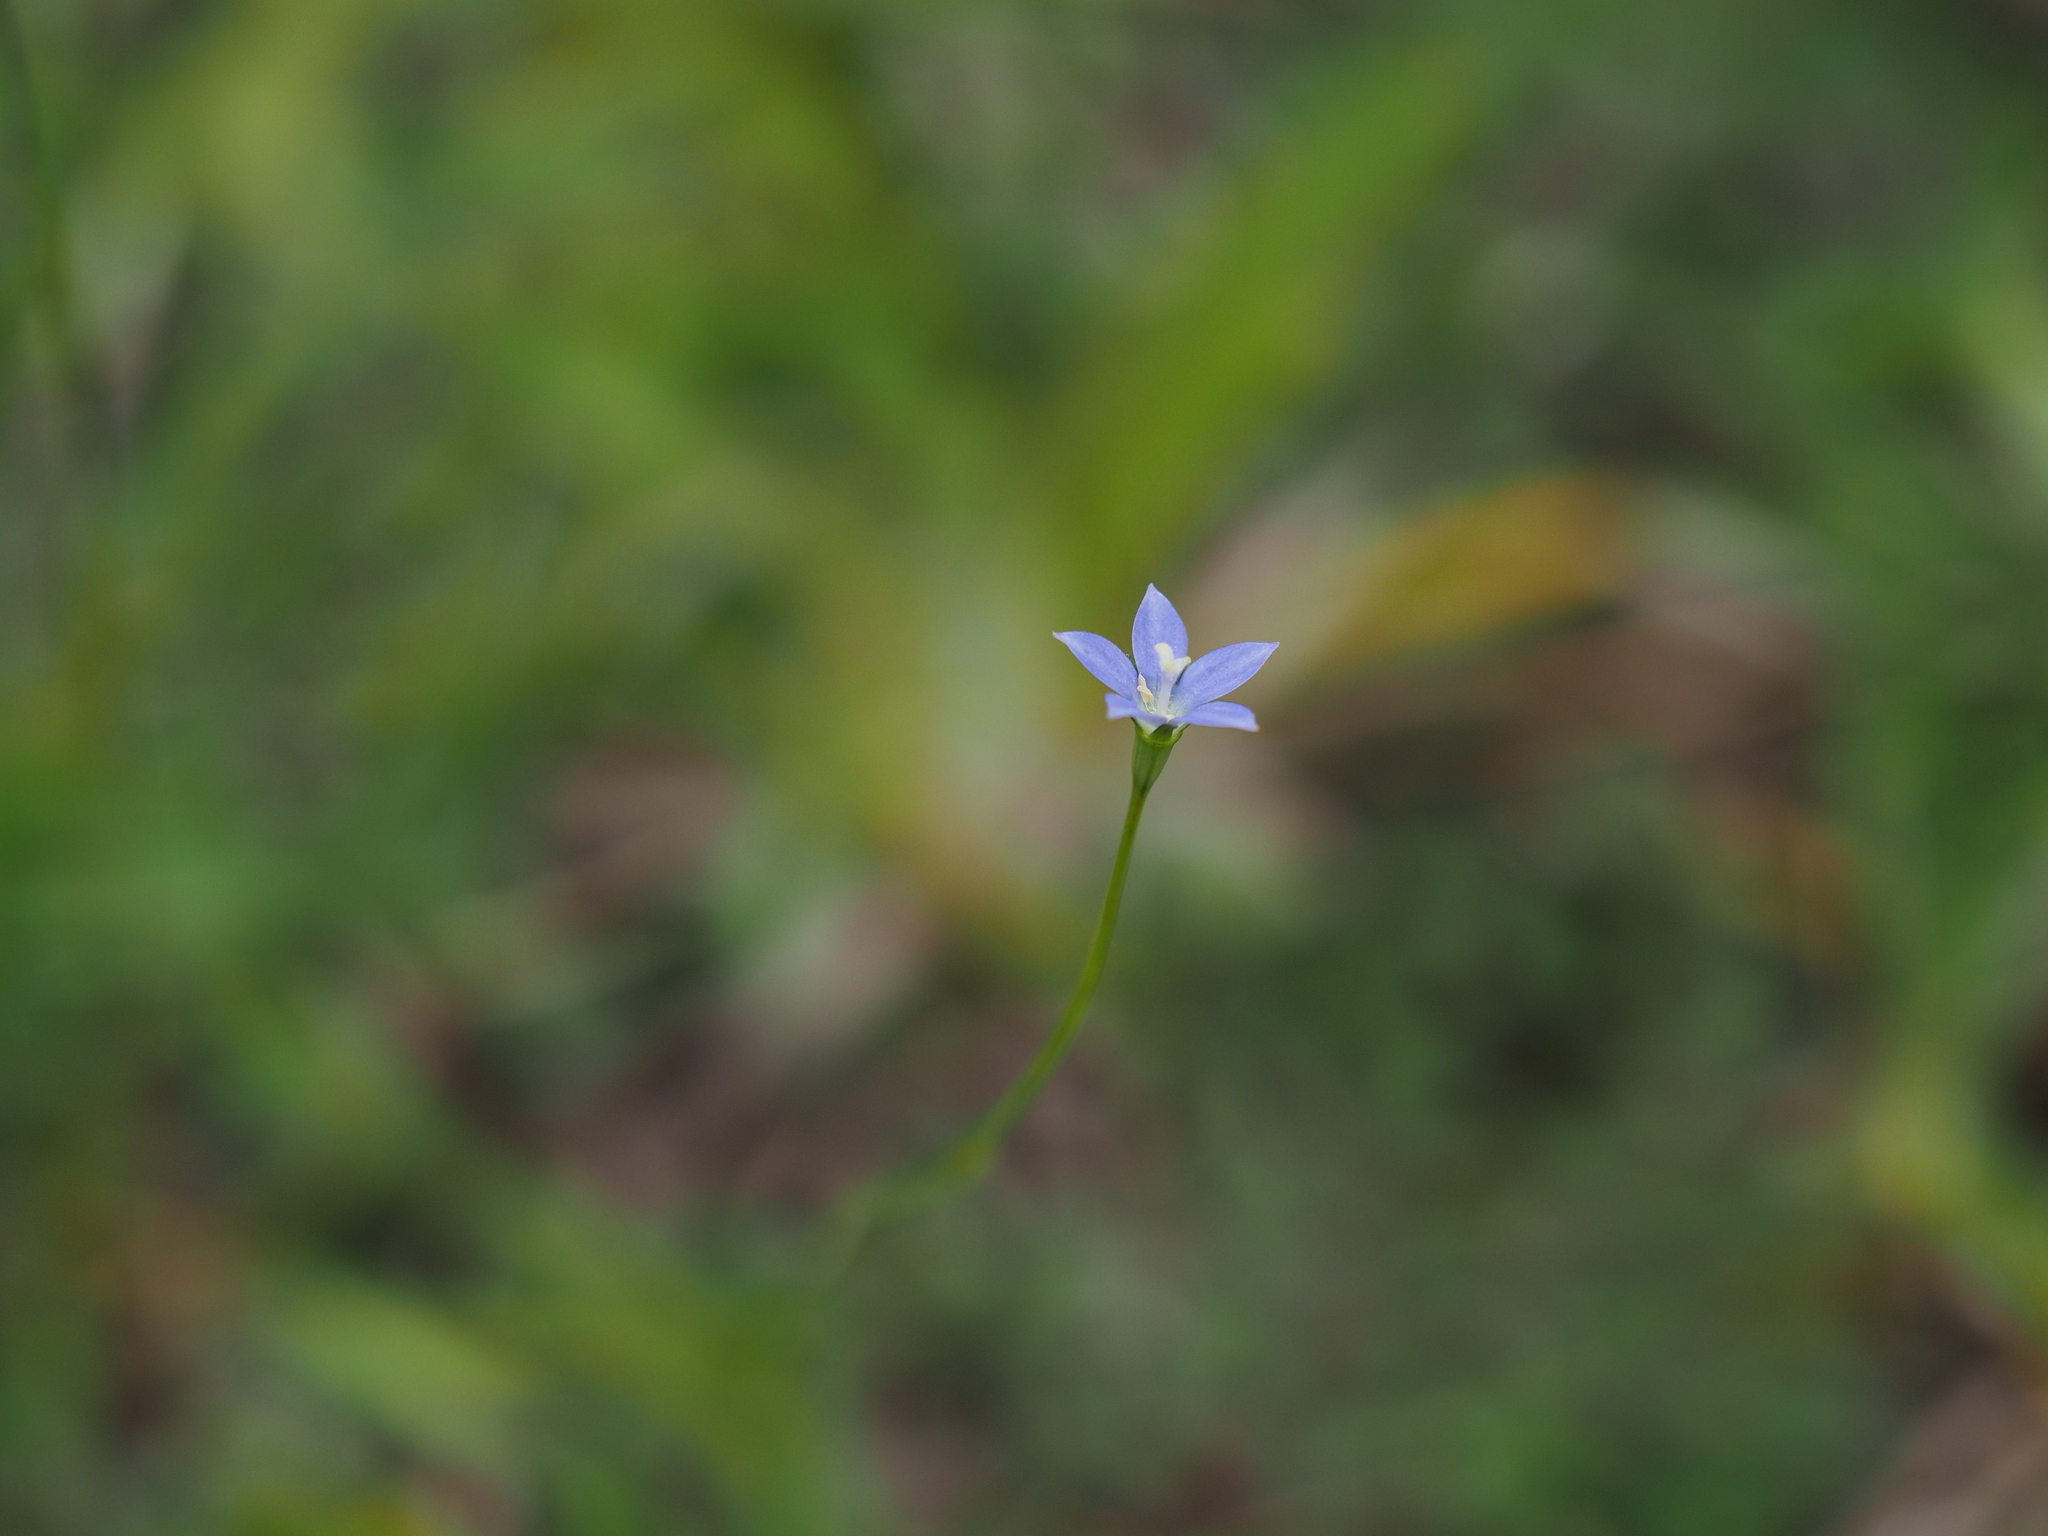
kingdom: Plantae
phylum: Tracheophyta
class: Magnoliopsida
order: Asterales
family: Campanulaceae
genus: Wahlenbergia
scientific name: Wahlenbergia marginata
